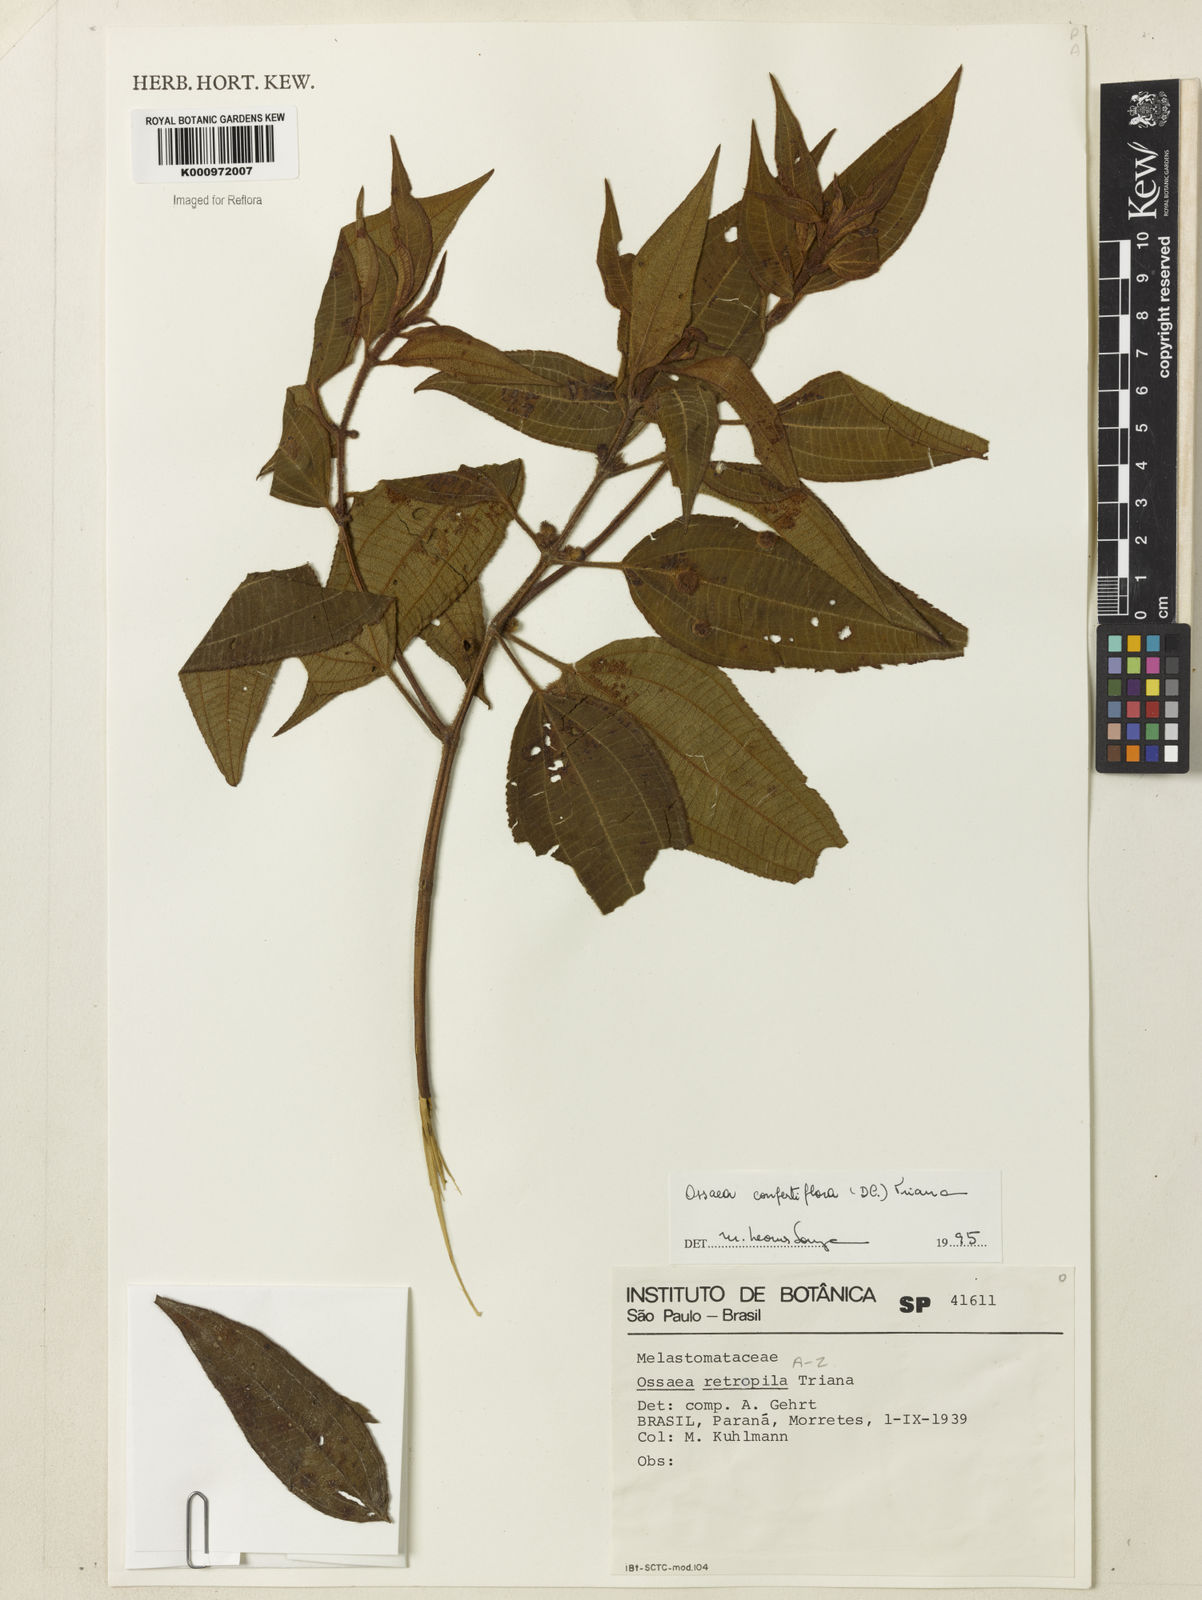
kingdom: Plantae
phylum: Tracheophyta
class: Magnoliopsida
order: Myrtales
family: Melastomataceae
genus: Miconia
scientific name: Miconia rubella
